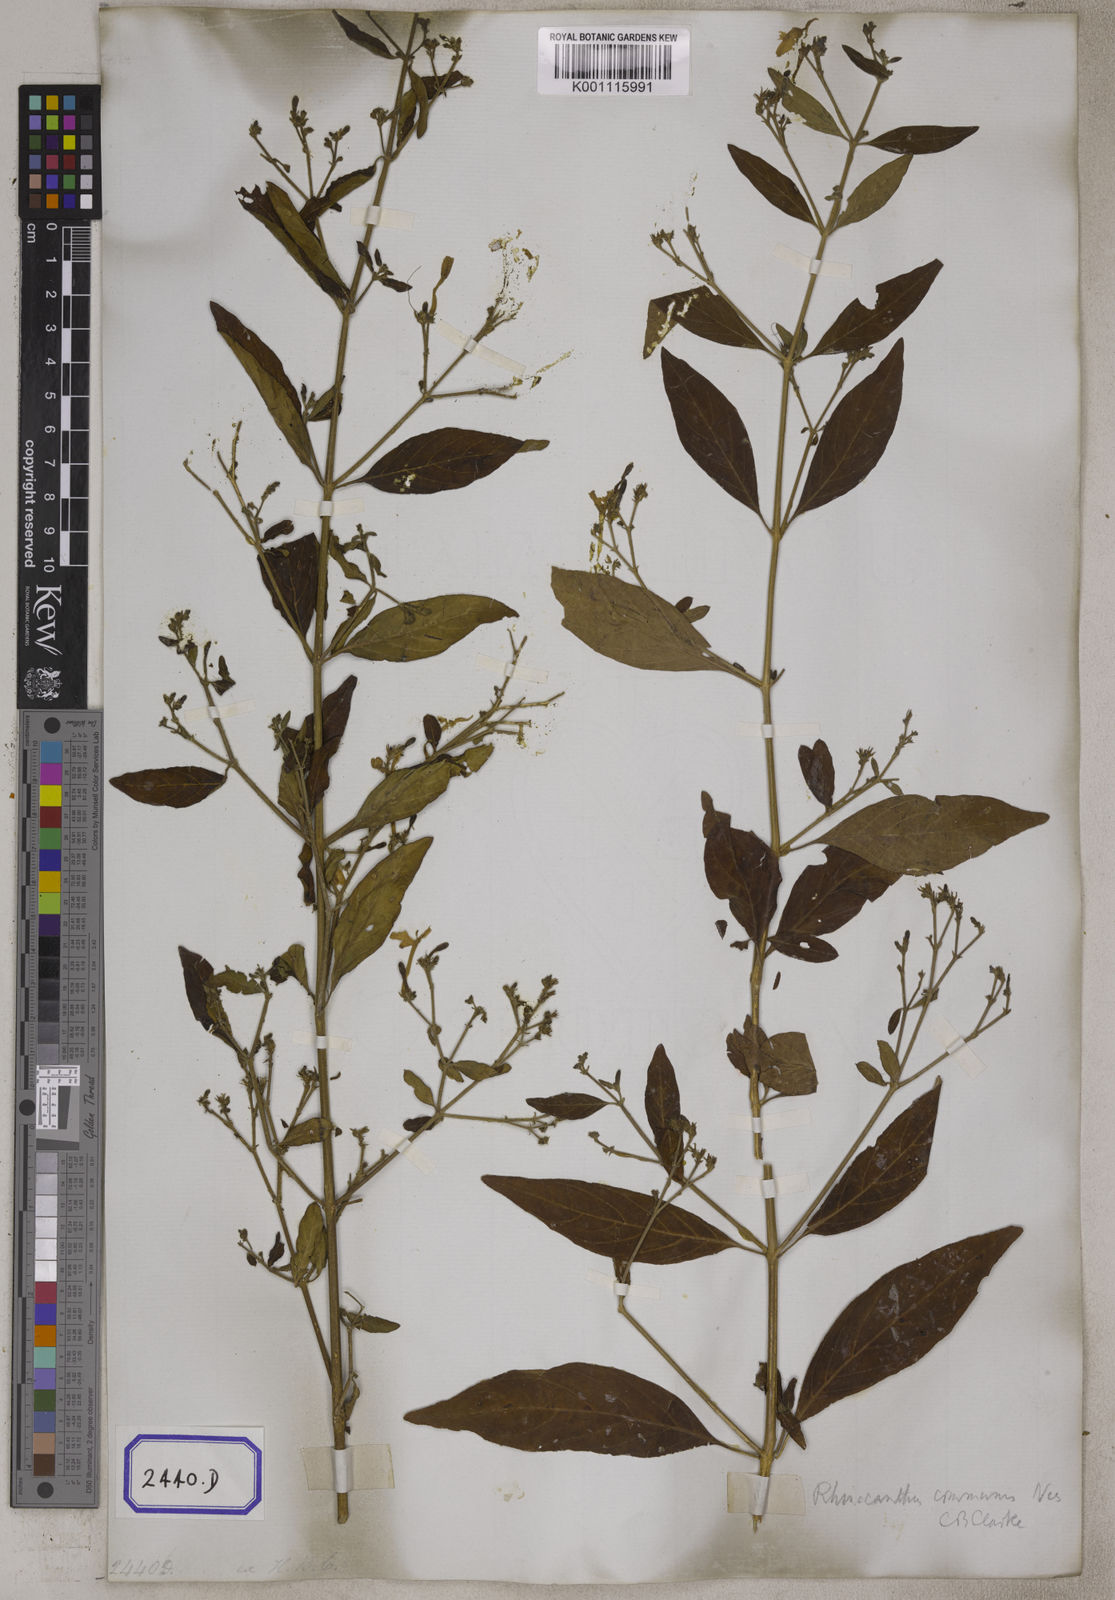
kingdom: Plantae
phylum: Tracheophyta
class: Magnoliopsida
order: Lamiales
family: Acanthaceae
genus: Rhinacanthus
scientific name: Rhinacanthus nasutus
